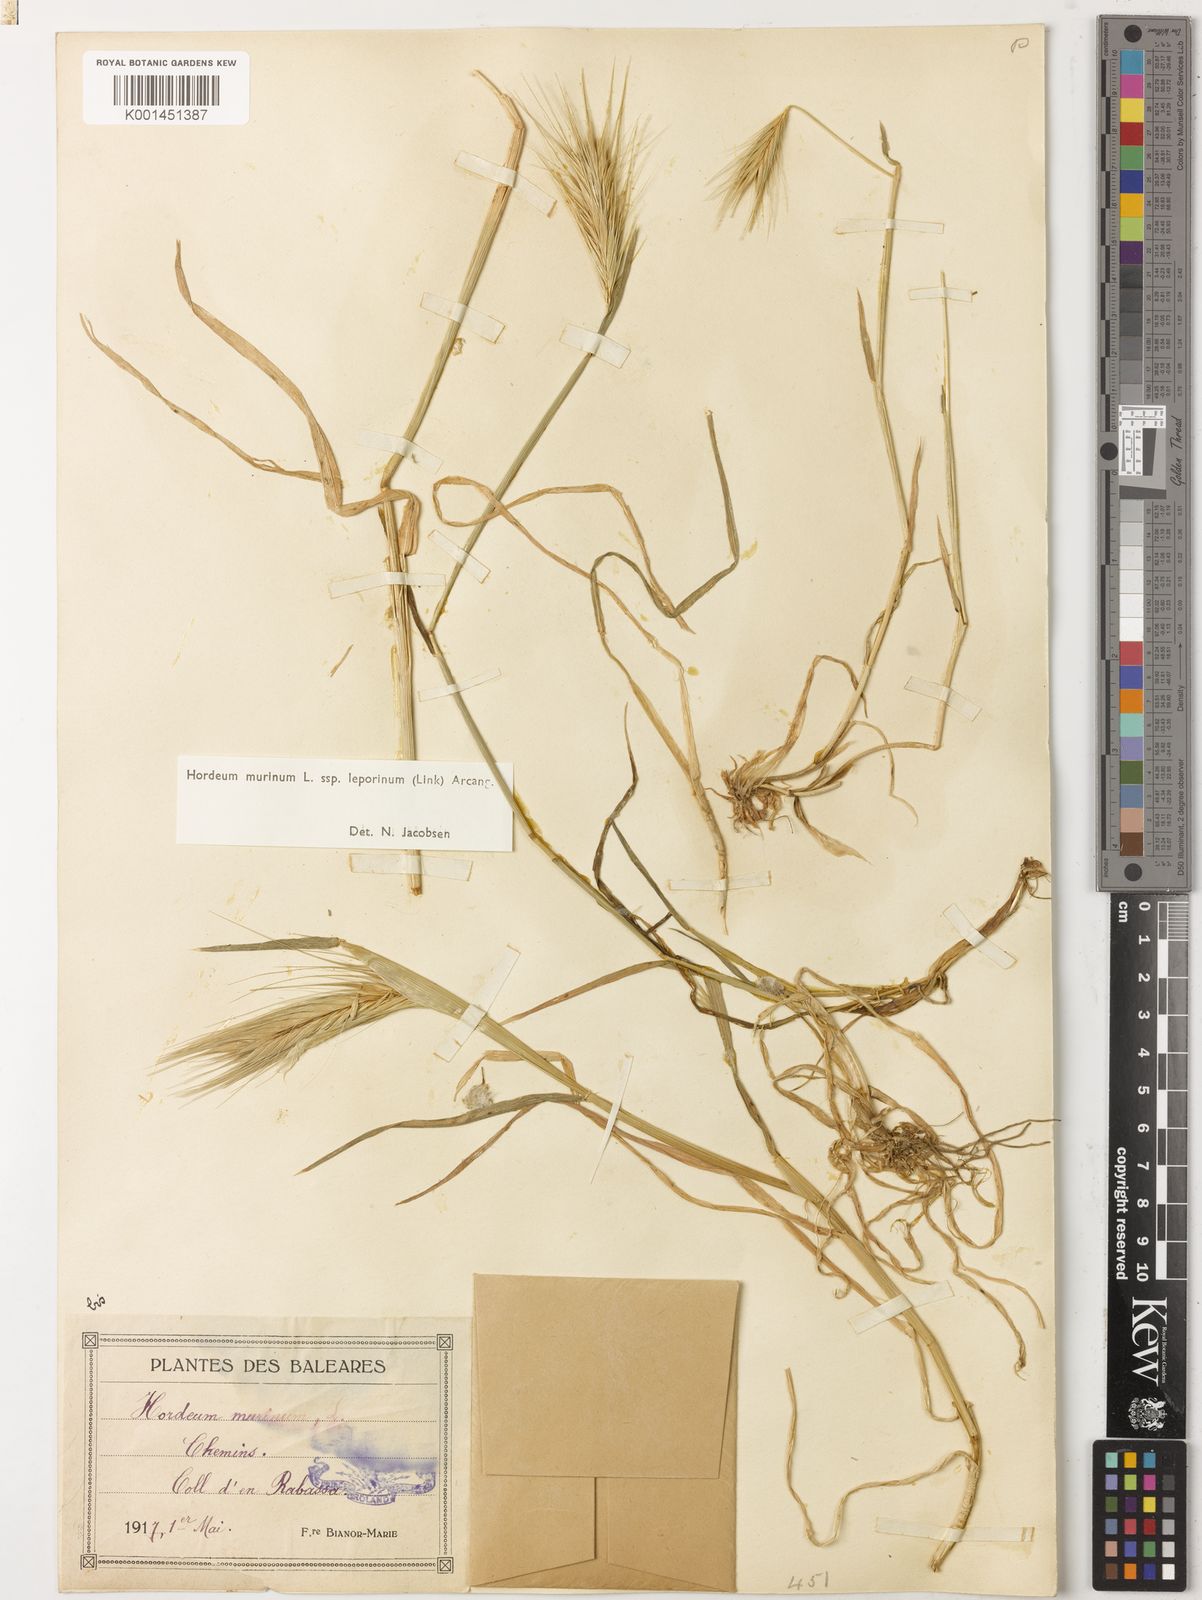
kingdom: Plantae
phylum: Tracheophyta
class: Liliopsida
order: Poales
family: Poaceae
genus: Hordeum
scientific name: Hordeum murinum
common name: Wall barley
